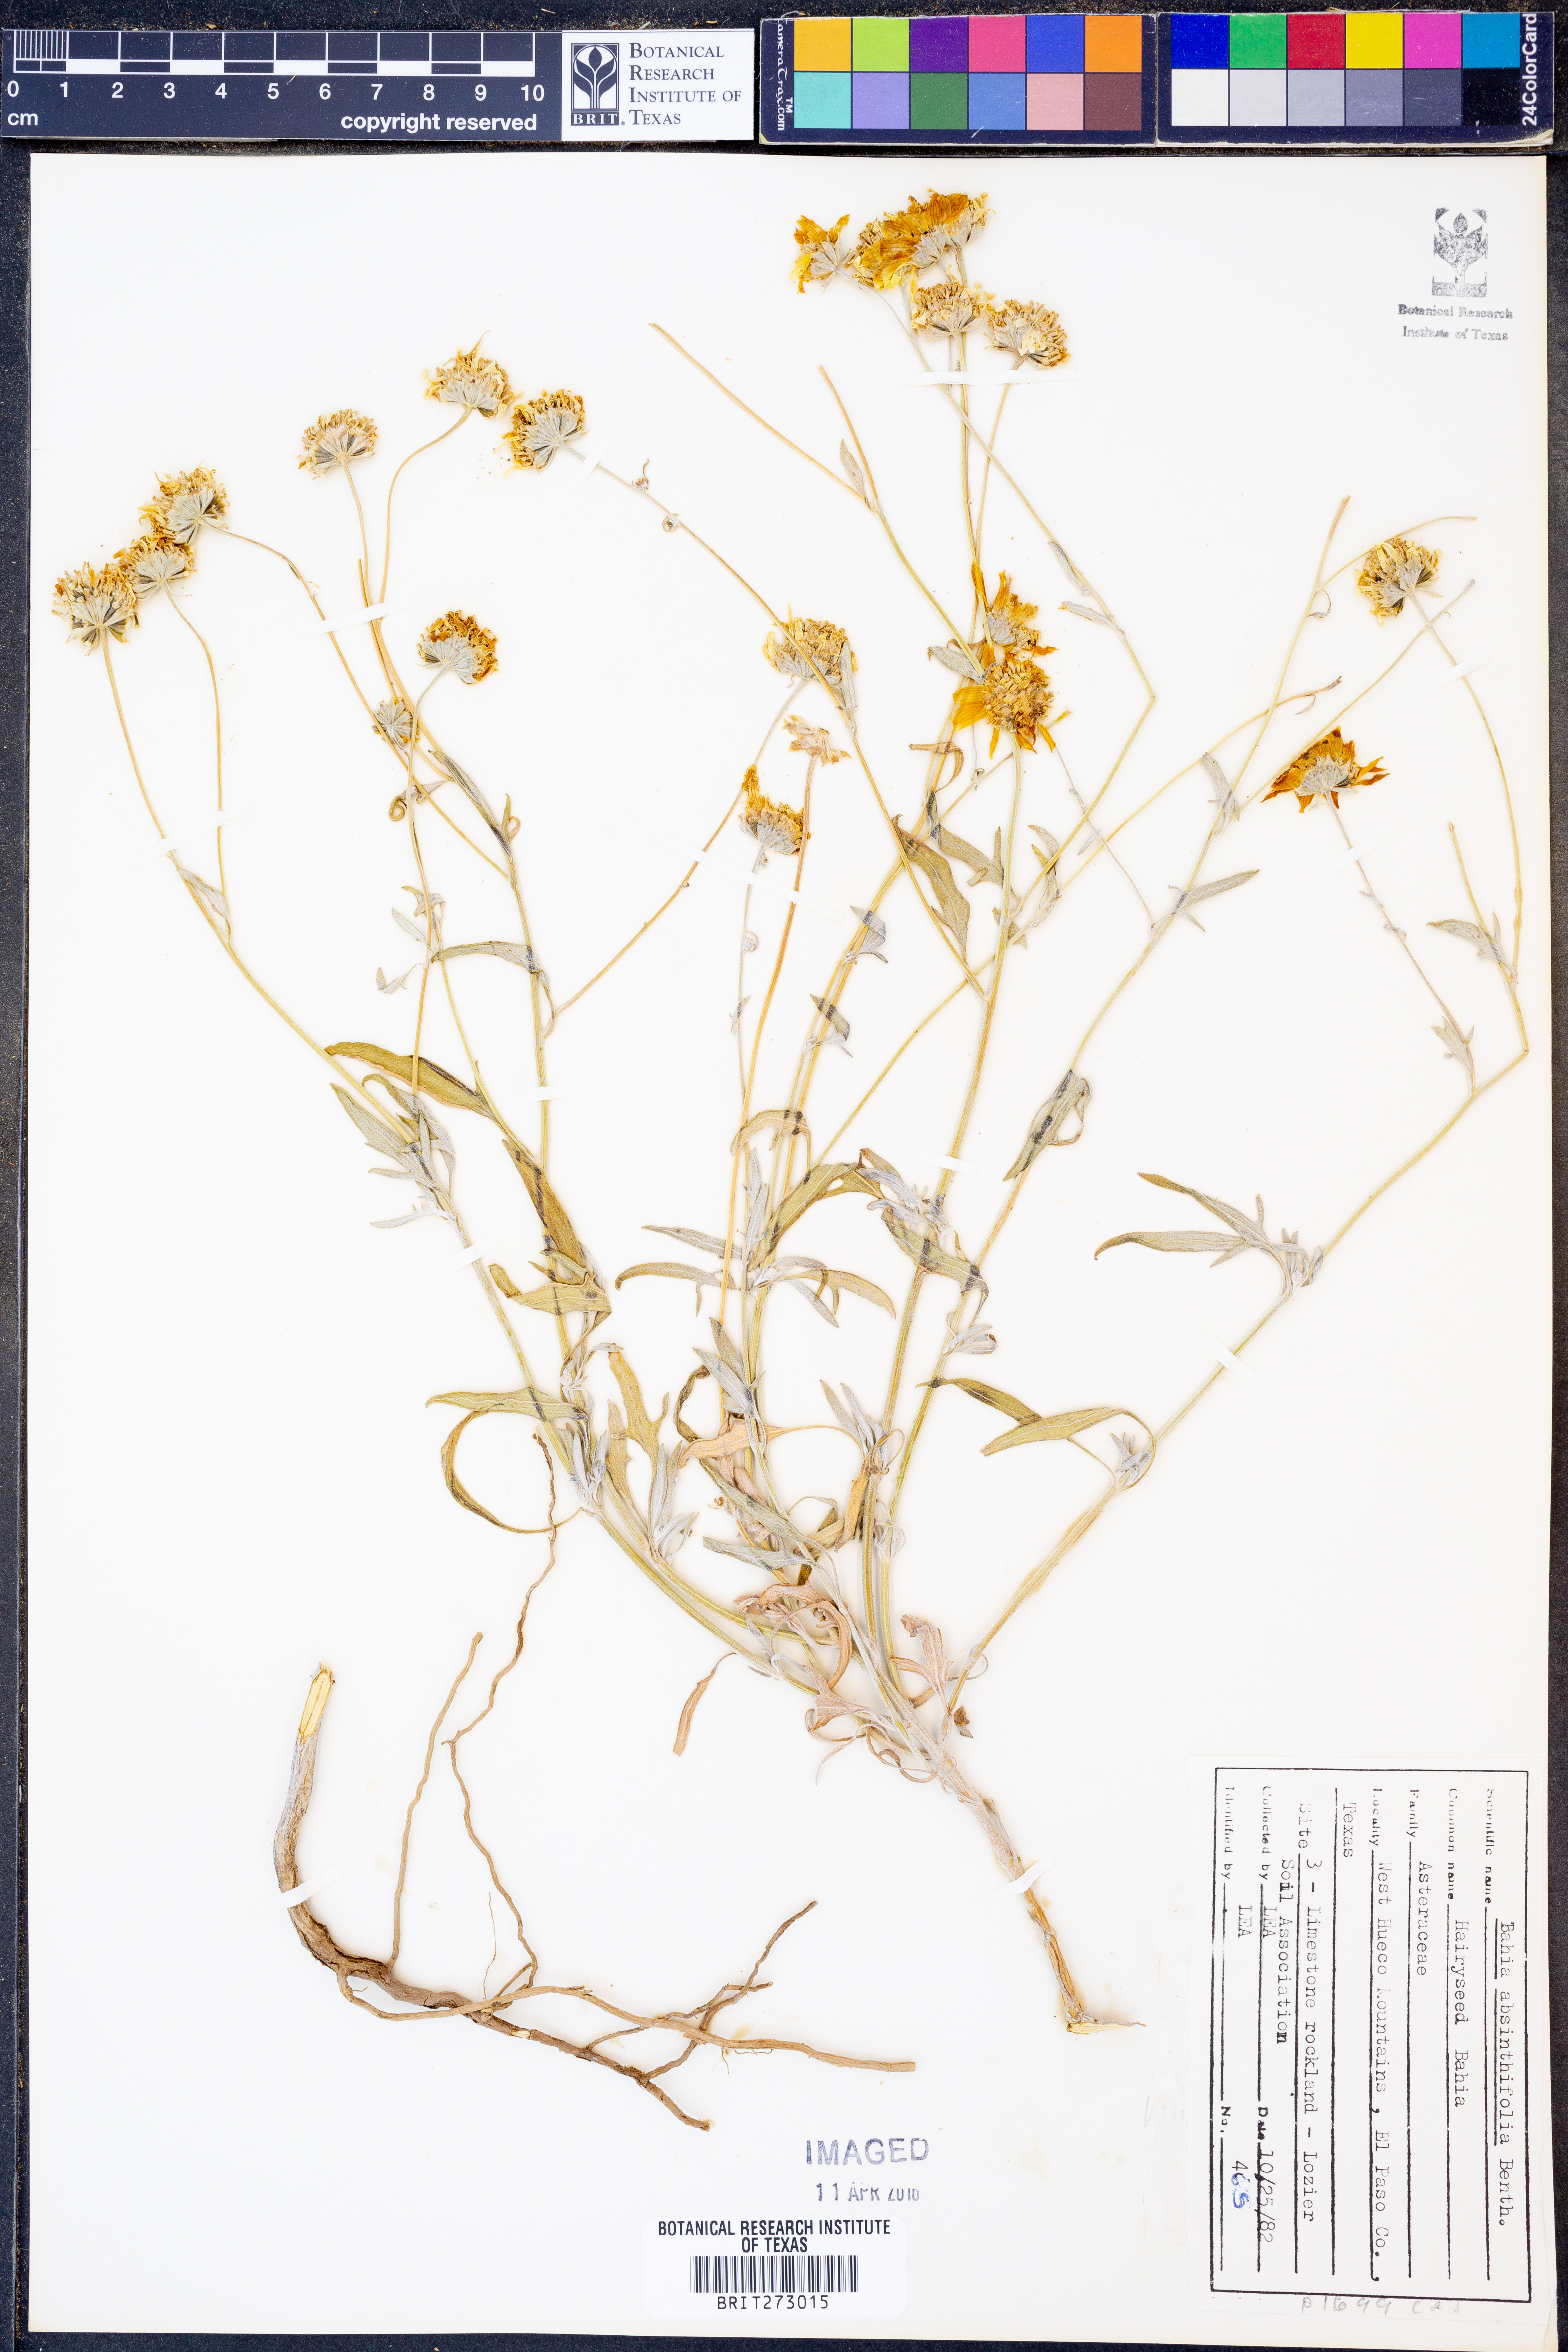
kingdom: Plantae
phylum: Tracheophyta
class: Magnoliopsida
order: Asterales
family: Asteraceae
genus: Picradeniopsis
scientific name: Picradeniopsis absinthifolia
